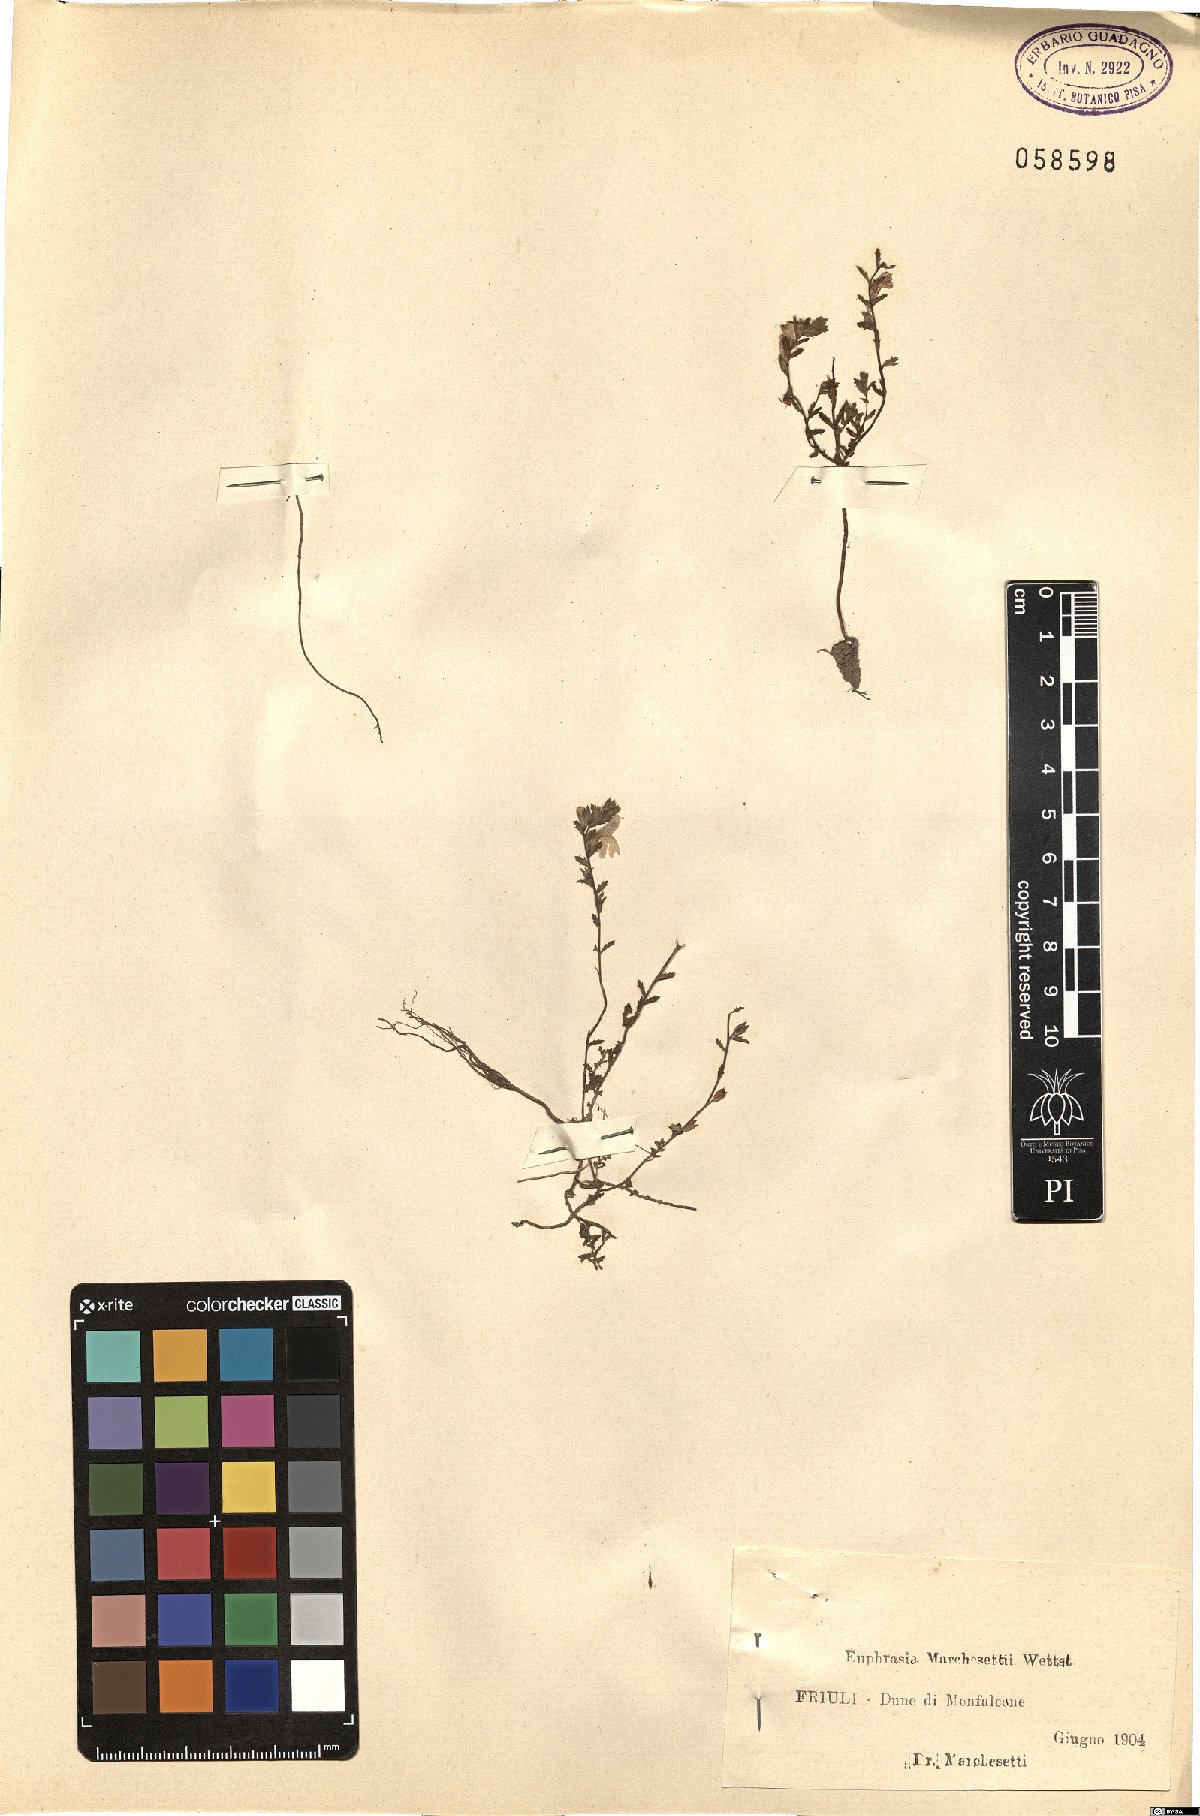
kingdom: Plantae
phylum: Tracheophyta
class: Magnoliopsida
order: Lamiales
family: Orobanchaceae
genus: Euphrasia
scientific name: Euphrasia marchesettii
